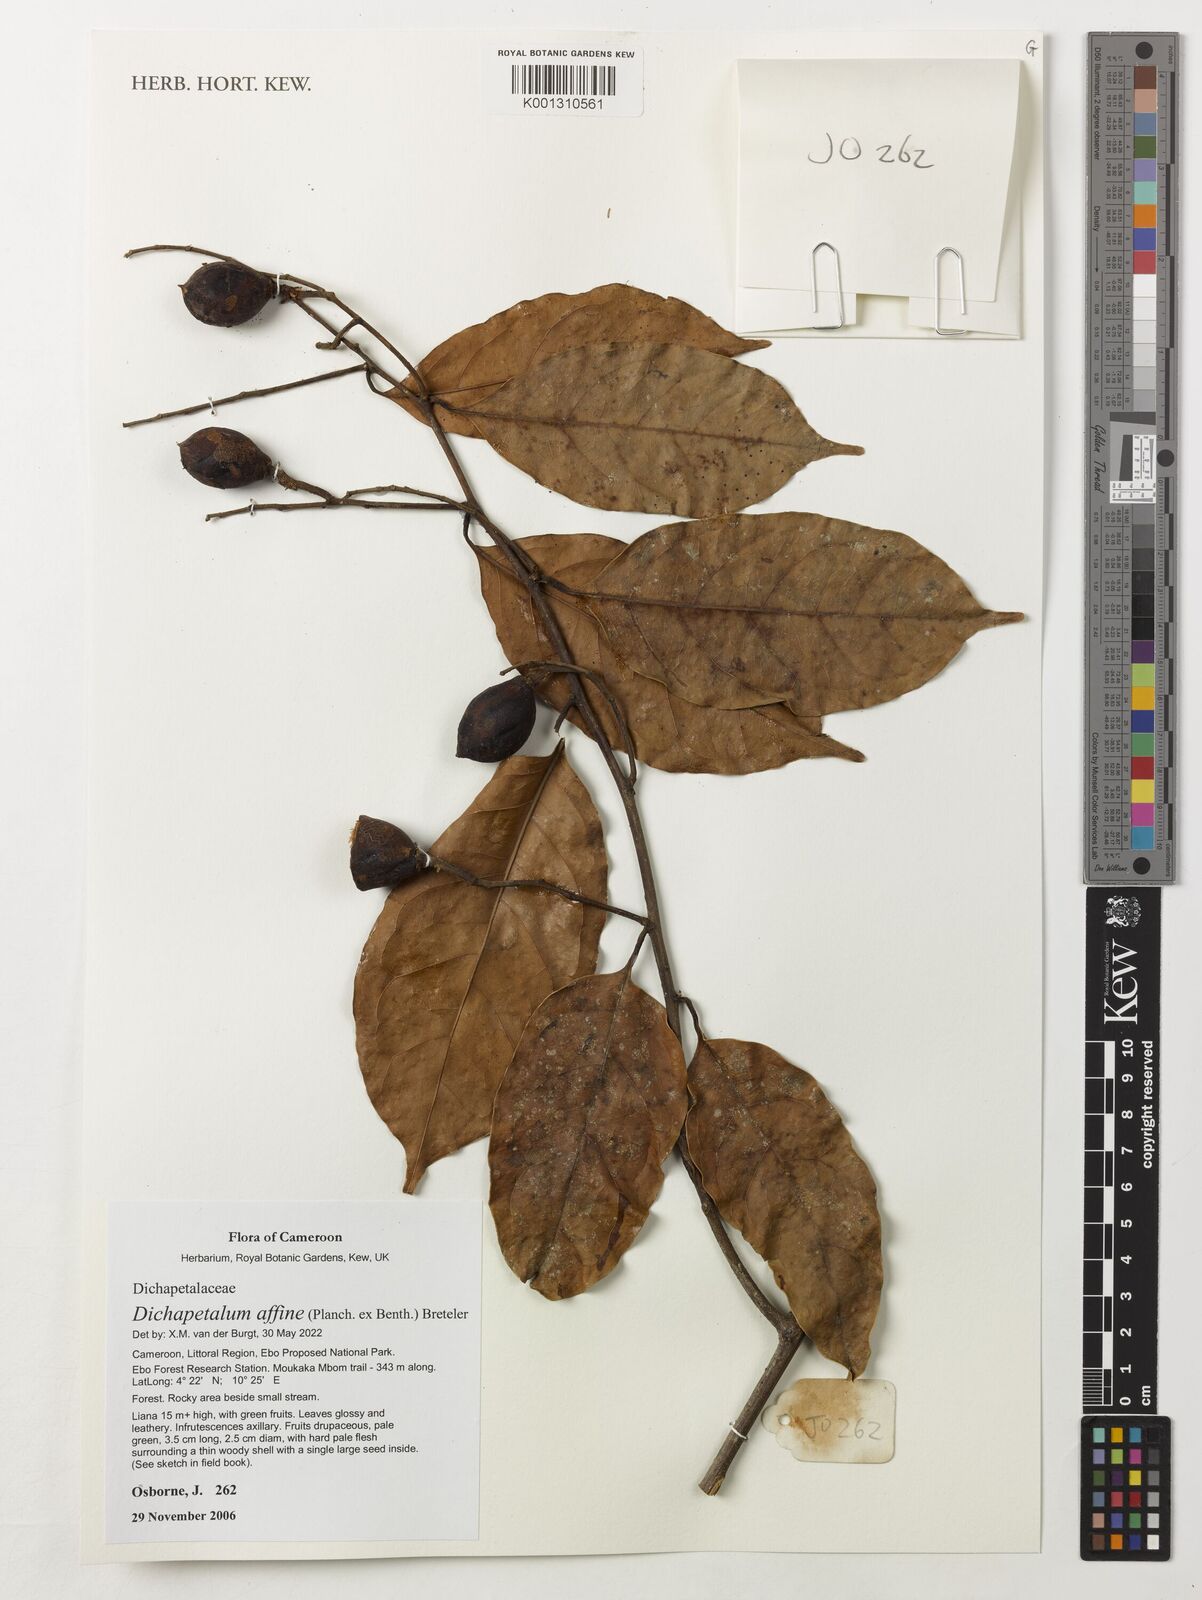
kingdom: Plantae
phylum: Tracheophyta
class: Magnoliopsida
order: Malpighiales
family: Dichapetalaceae
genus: Dichapetalum
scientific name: Dichapetalum affine
